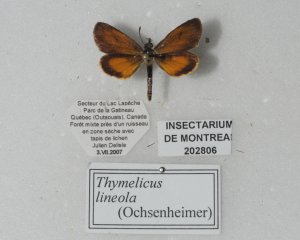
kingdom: Animalia
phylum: Arthropoda
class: Insecta
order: Lepidoptera
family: Hesperiidae
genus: Ancyloxypha
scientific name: Ancyloxypha numitor
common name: Least Skipper
